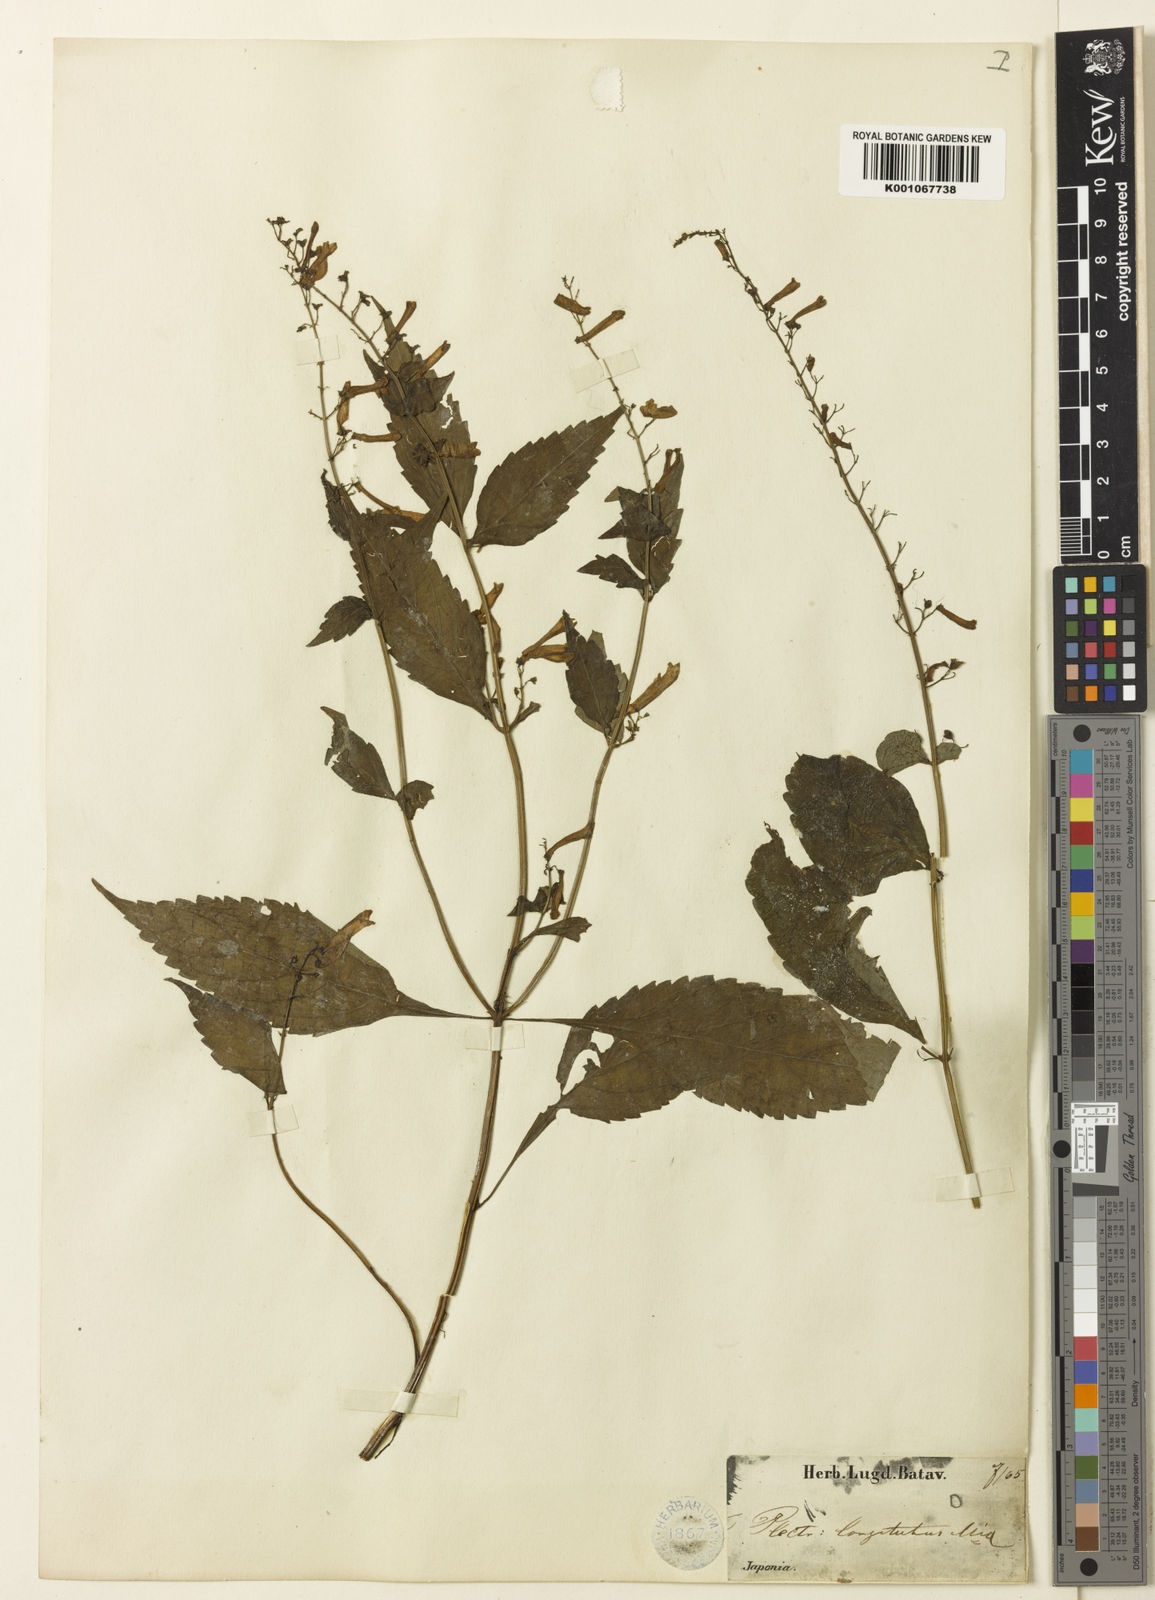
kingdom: Plantae
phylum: Tracheophyta
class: Magnoliopsida
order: Lamiales
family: Lamiaceae
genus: Isodon
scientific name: Isodon
